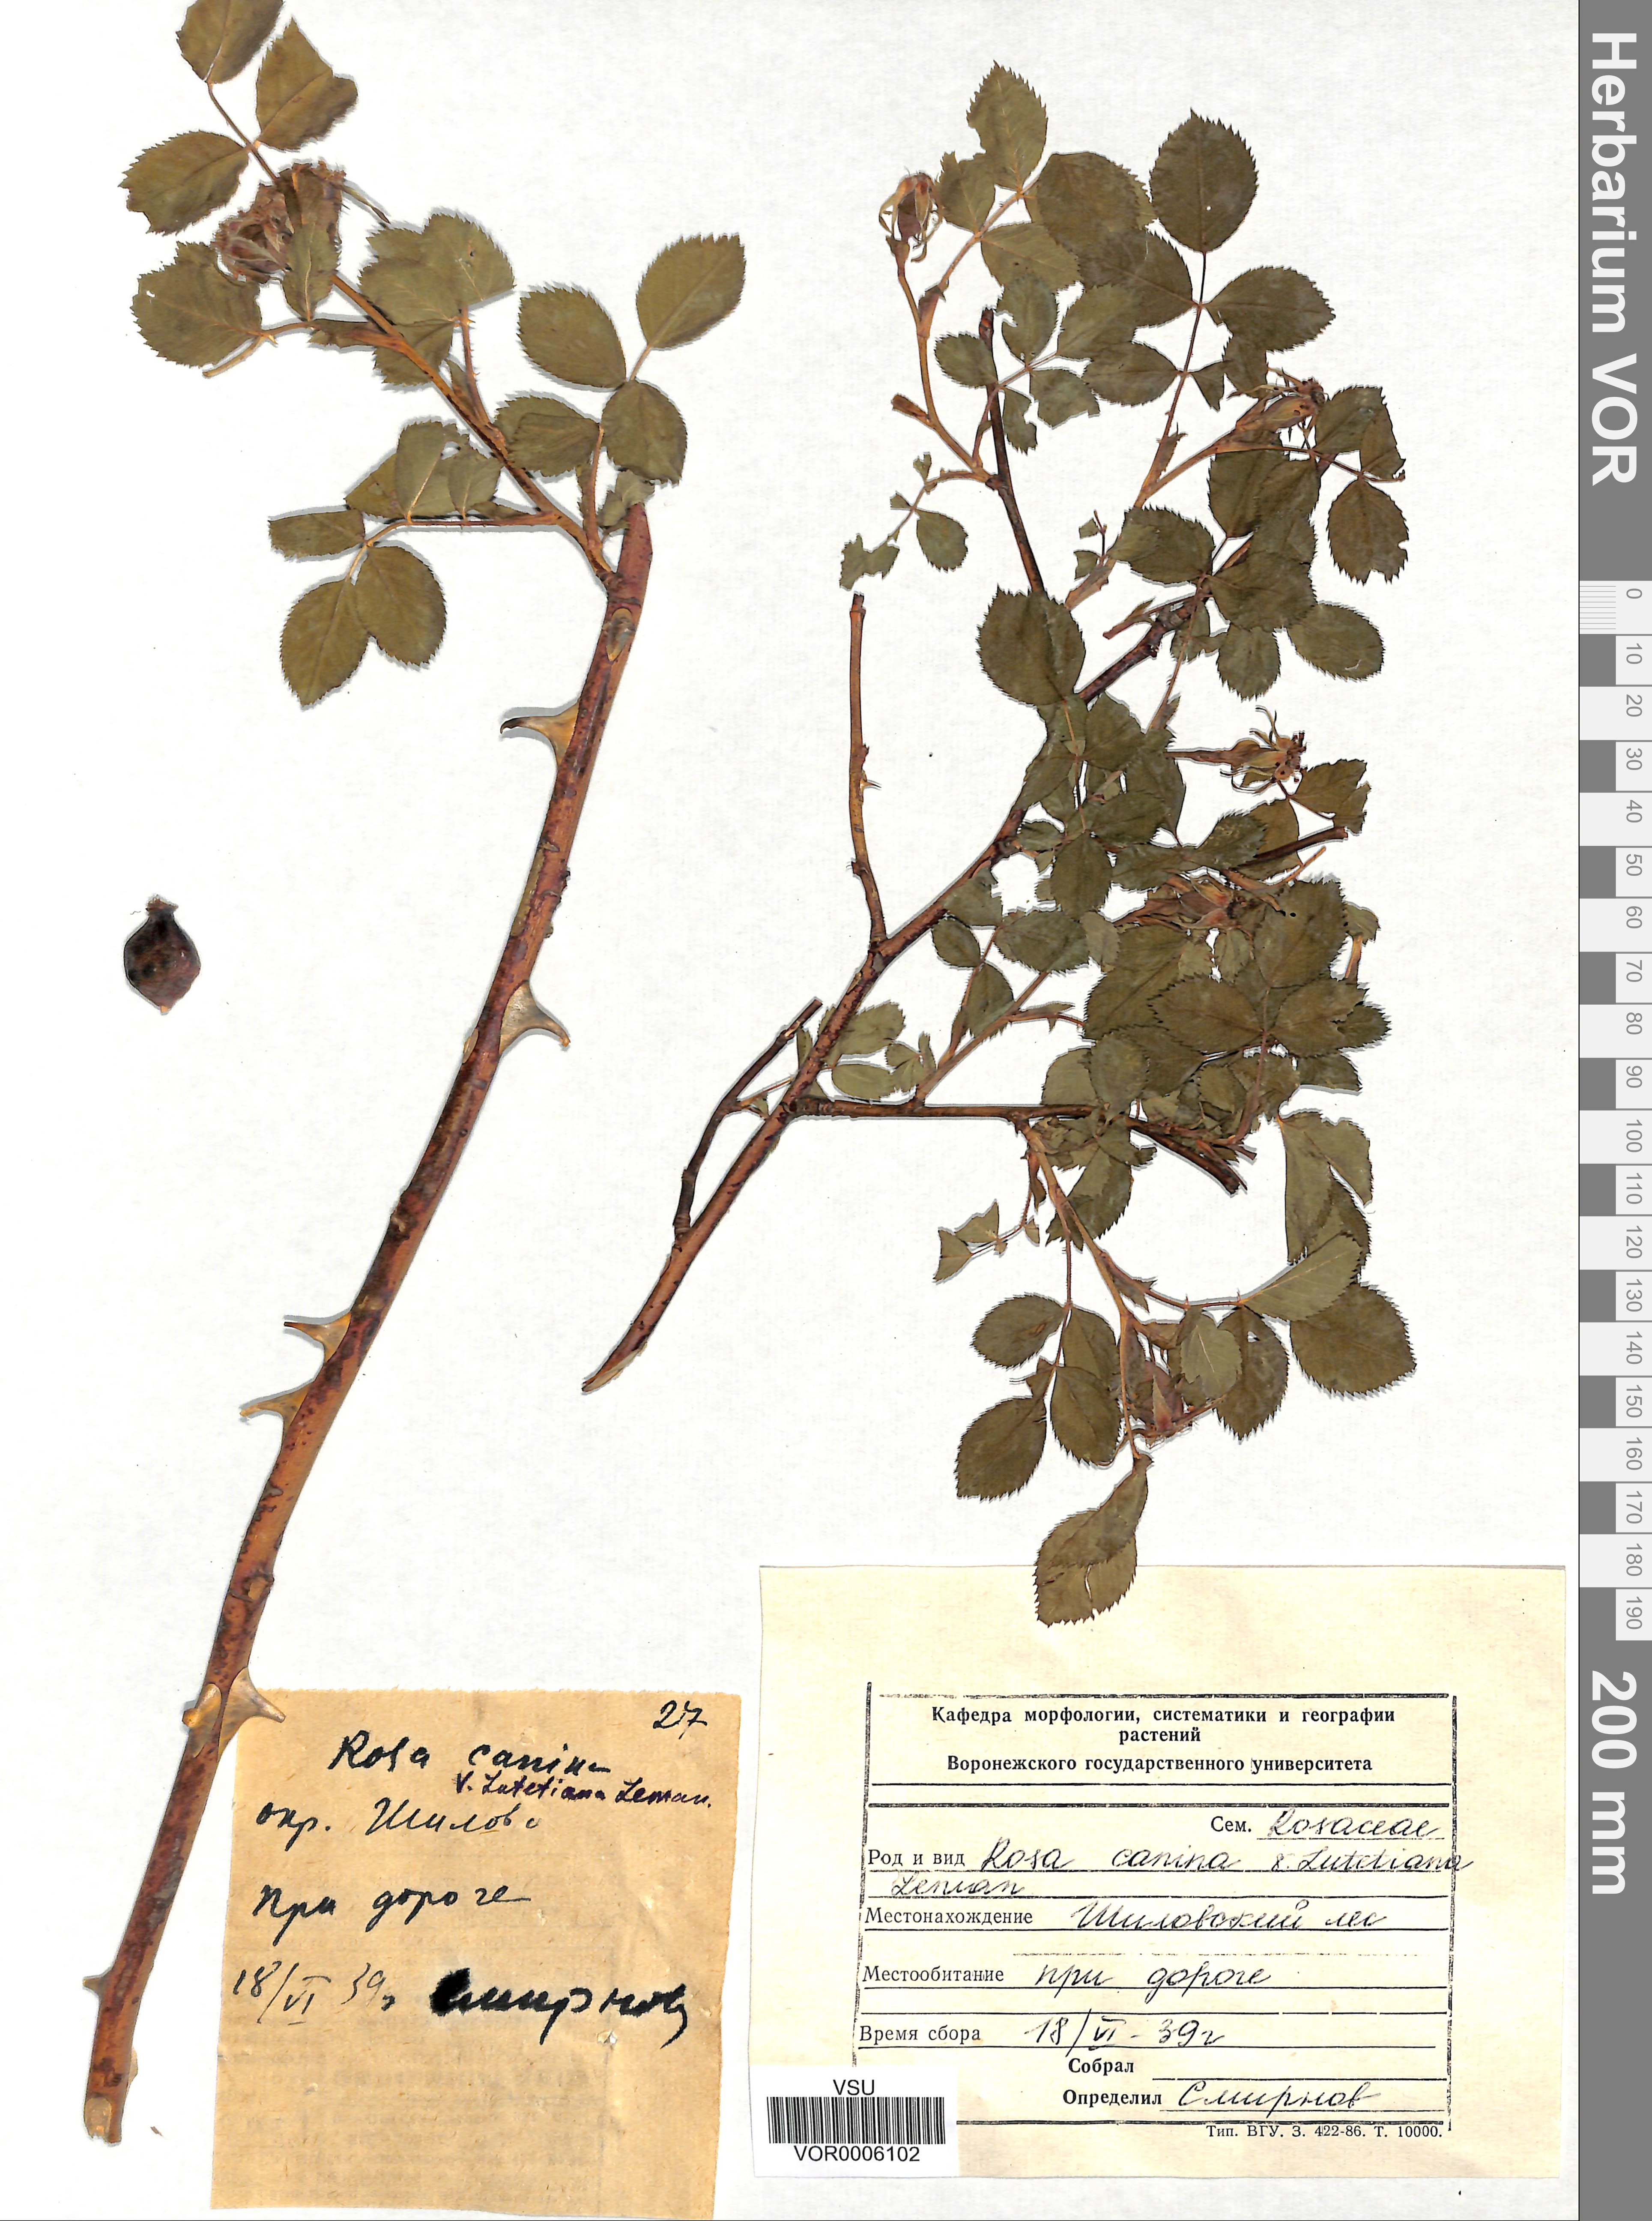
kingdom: Plantae
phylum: Tracheophyta
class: Magnoliopsida
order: Rosales
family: Rosaceae
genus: Rosa
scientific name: Rosa canina
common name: Dog rose
